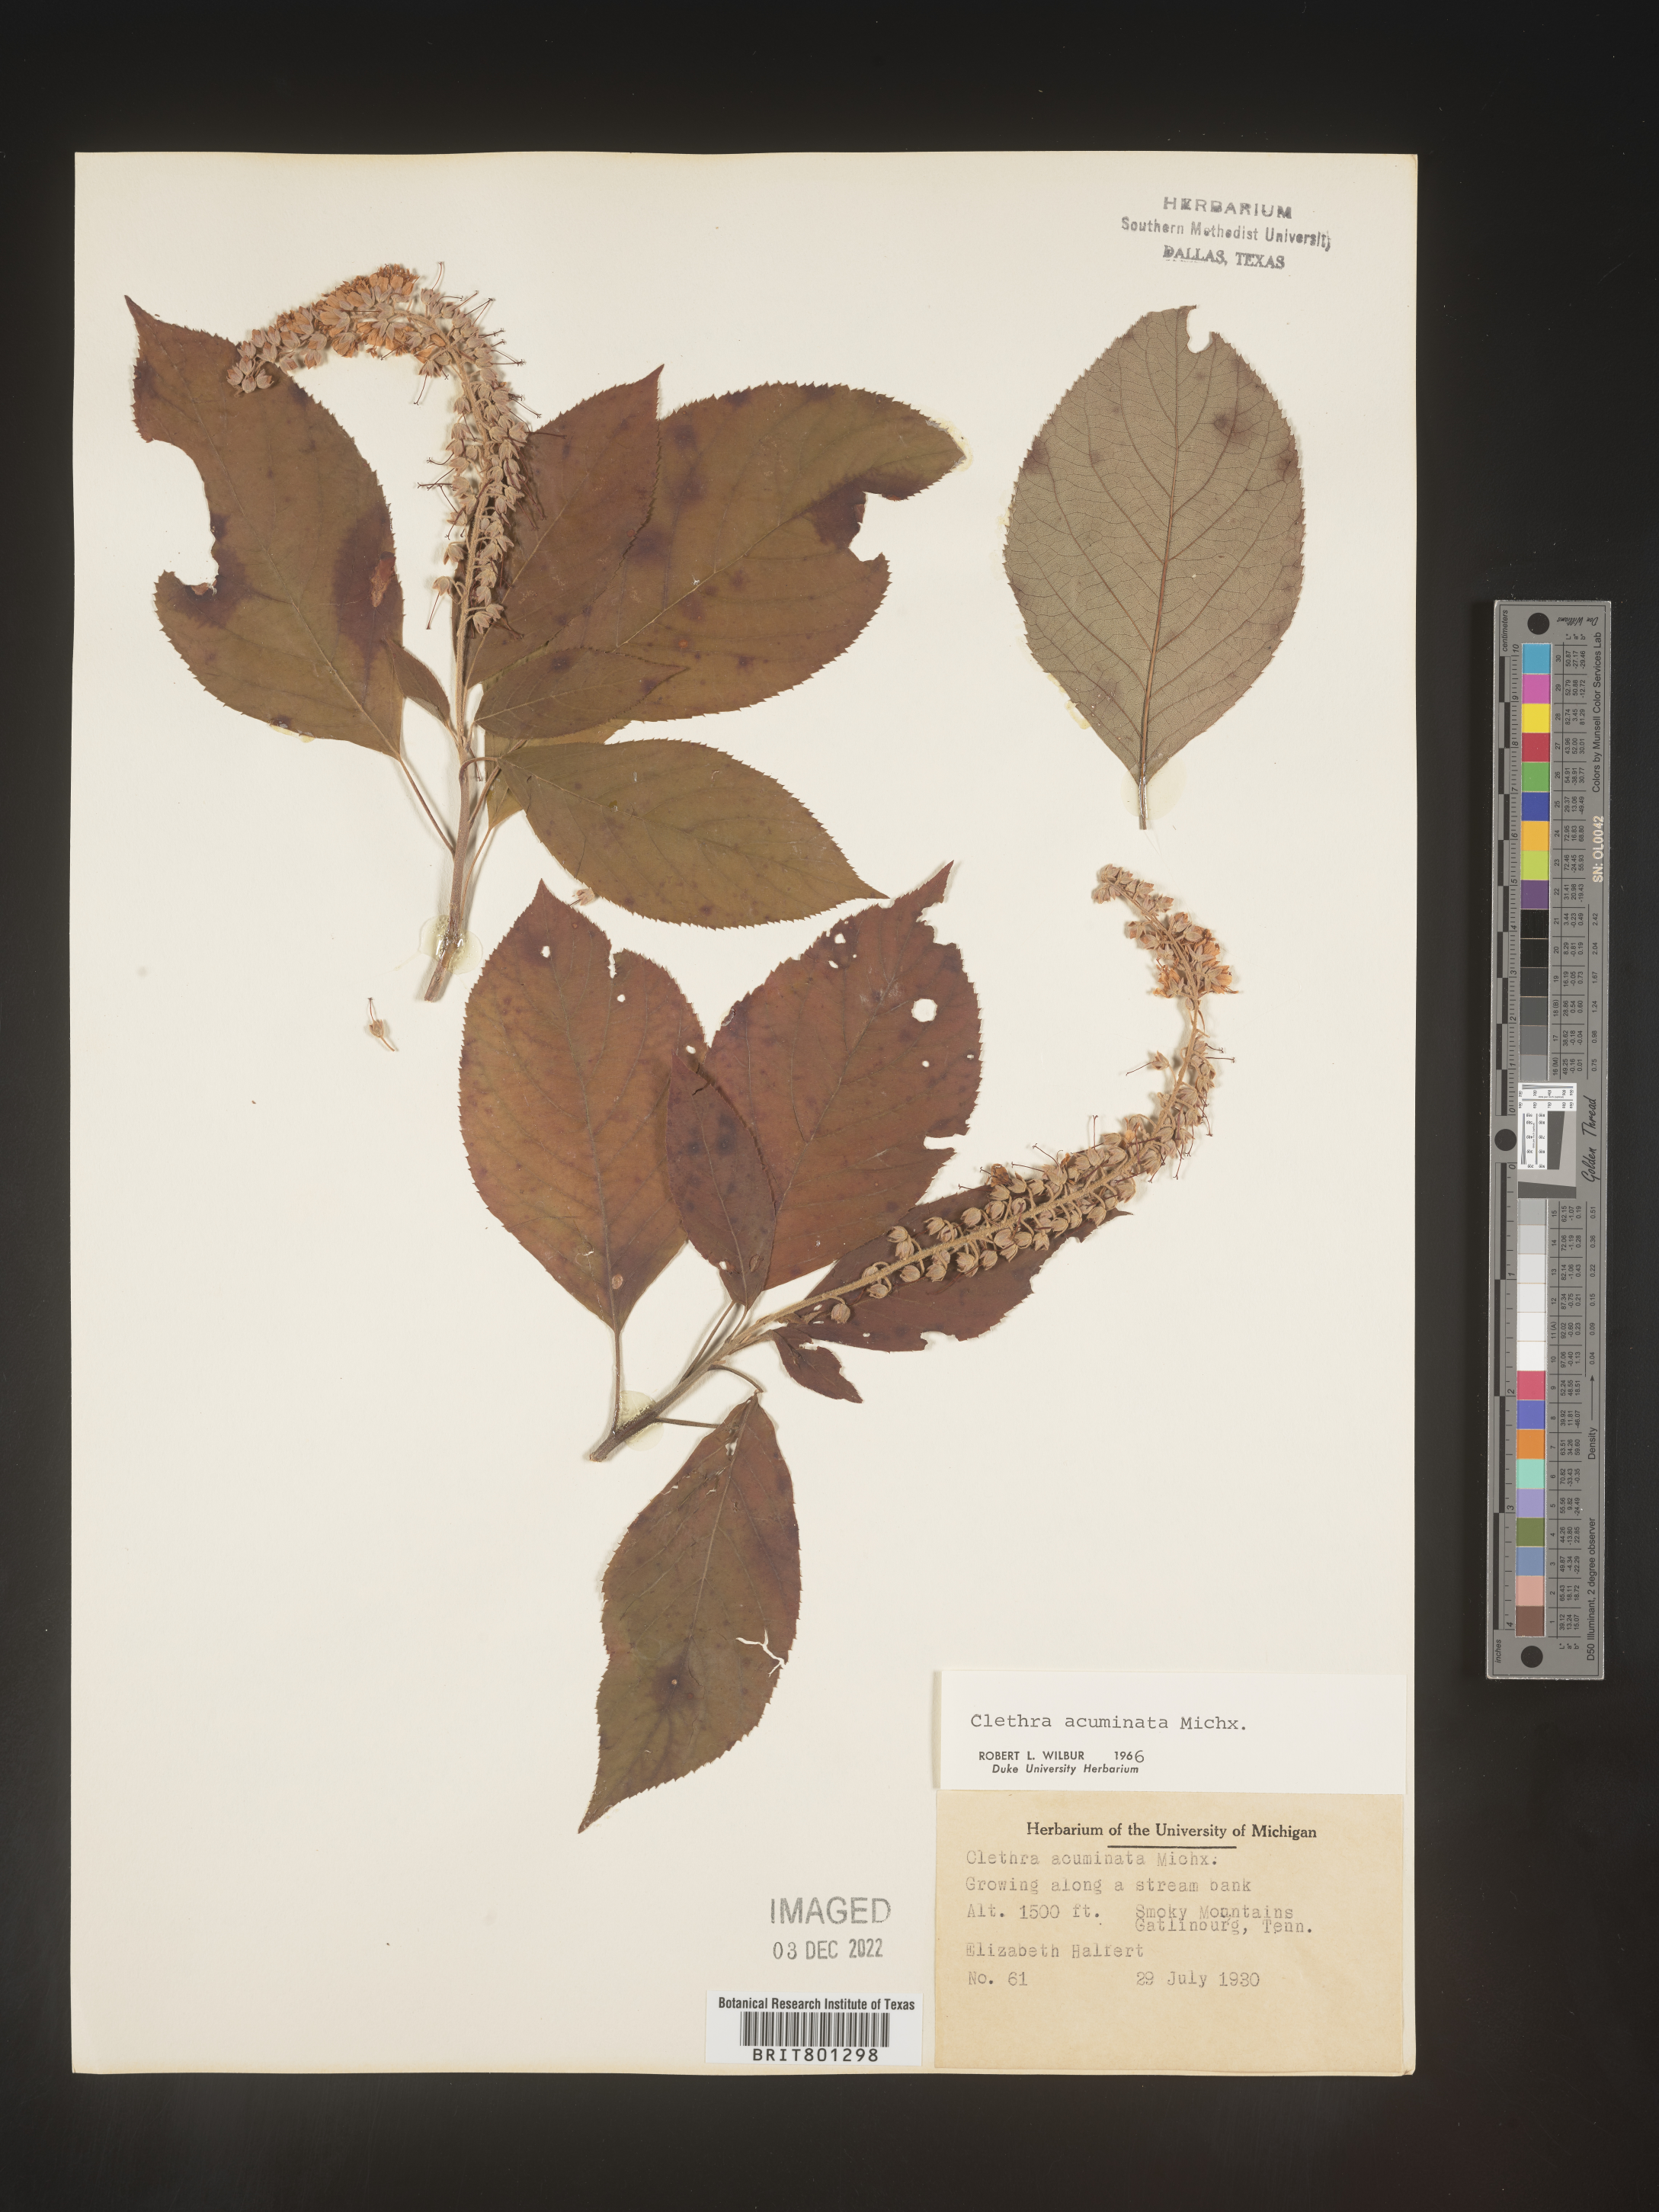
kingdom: Plantae
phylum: Tracheophyta
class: Magnoliopsida
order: Ericales
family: Clethraceae
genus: Clethra
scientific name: Clethra acuminata
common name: Mountain sweet pepperbush
